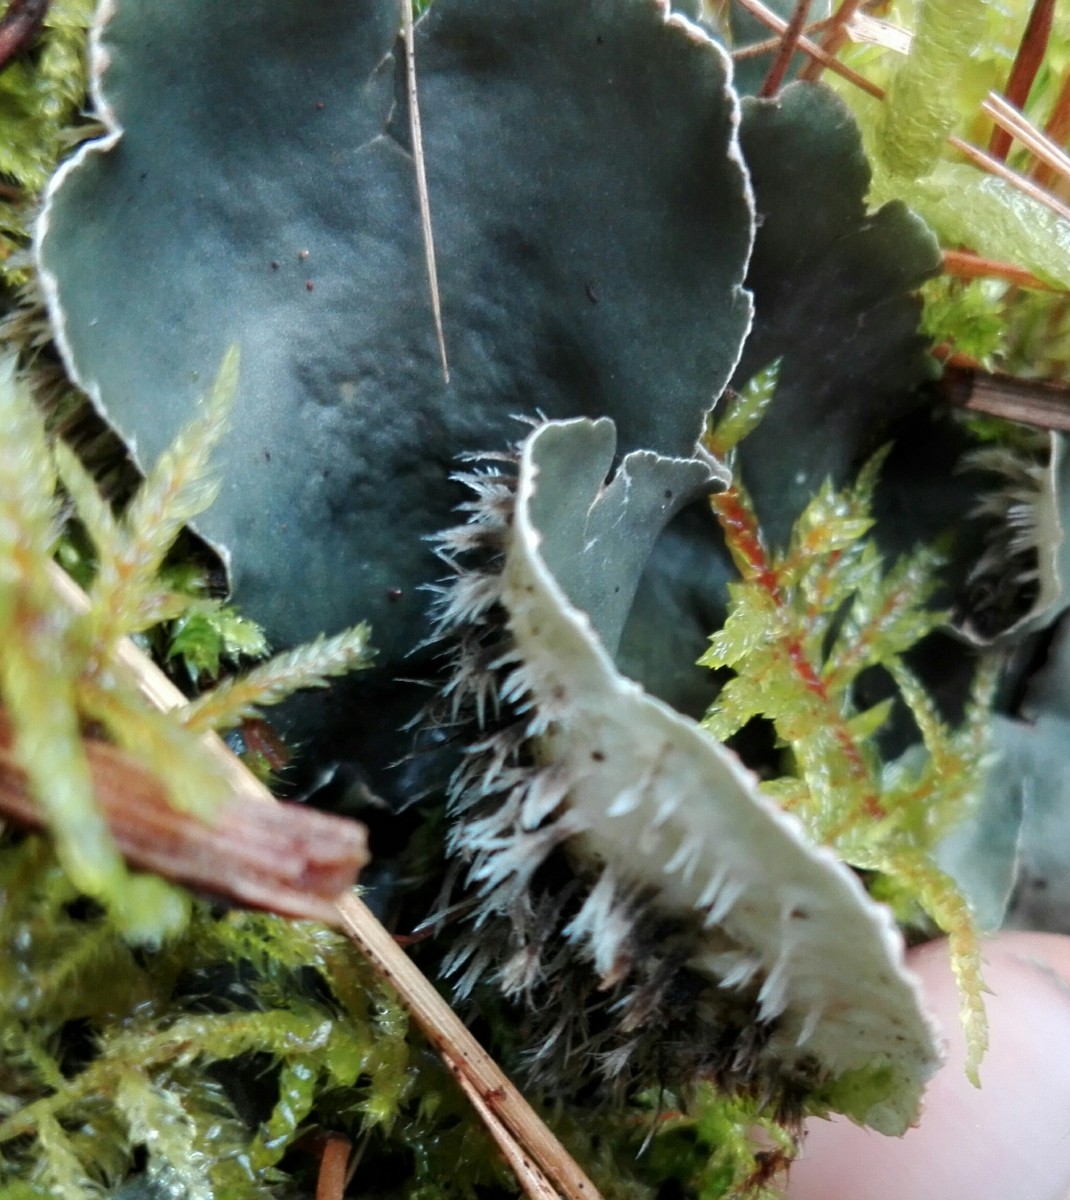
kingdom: Fungi
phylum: Ascomycota
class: Lecanoromycetes
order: Peltigerales
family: Peltigeraceae
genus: Peltigera
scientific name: Peltigera hymenina
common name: hinde-skjoldlav
